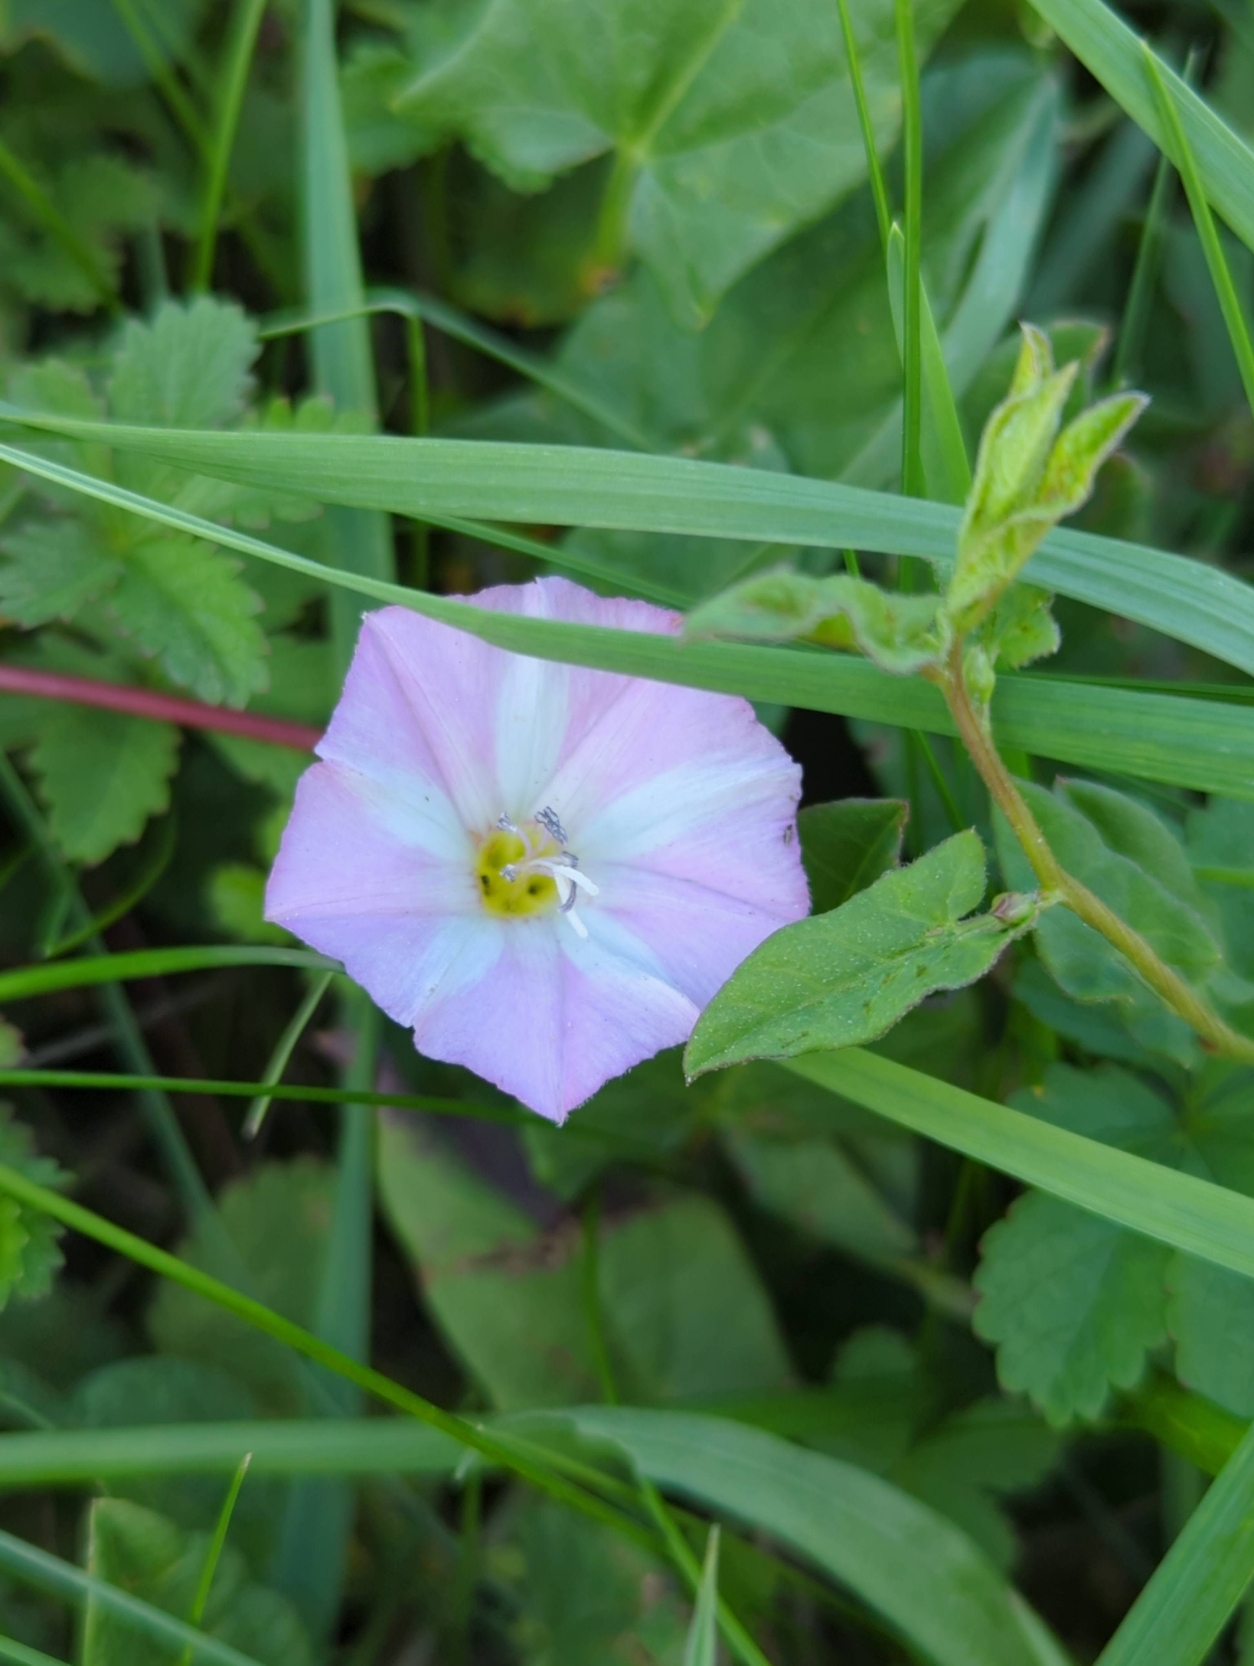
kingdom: Plantae
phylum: Tracheophyta
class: Magnoliopsida
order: Solanales
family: Convolvulaceae
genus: Convolvulus
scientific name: Convolvulus arvensis
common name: Ager-snerle
